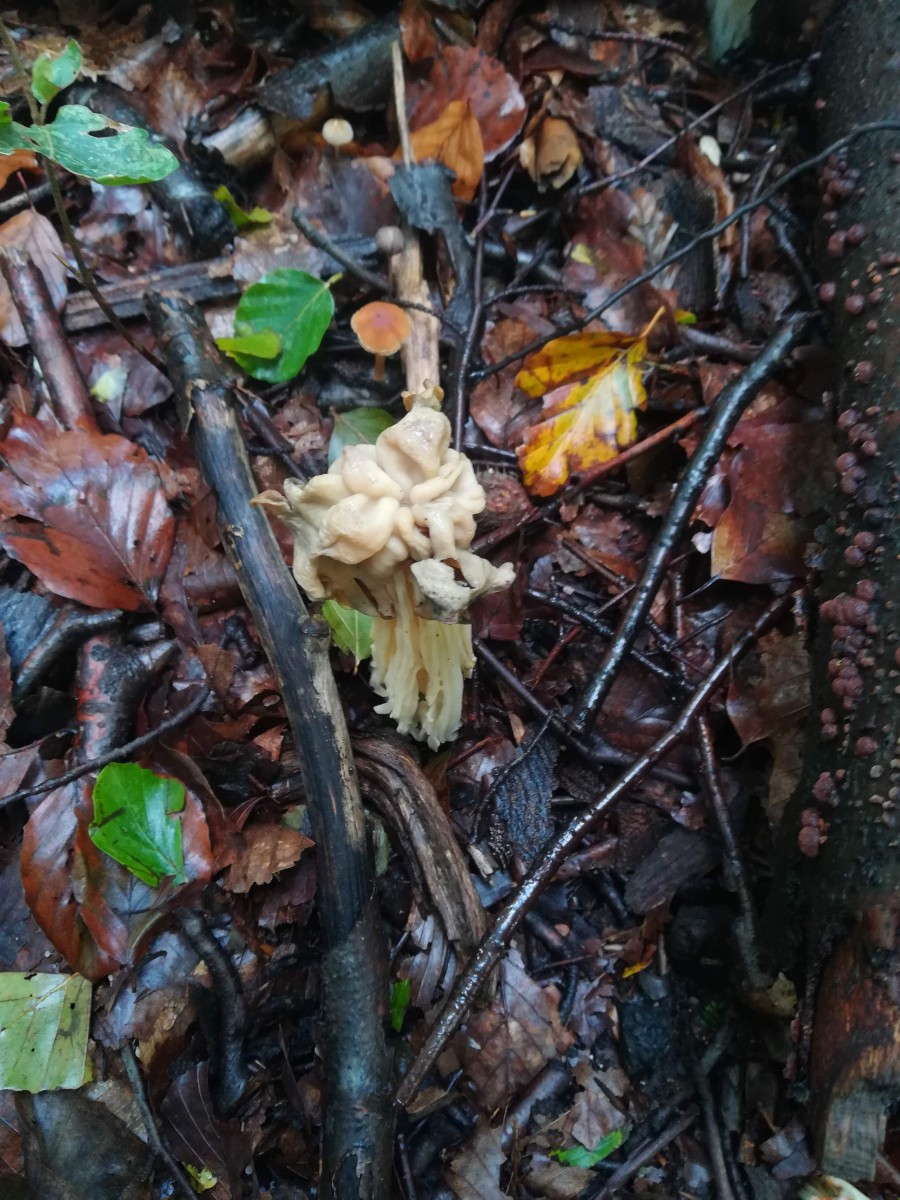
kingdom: Fungi
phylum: Ascomycota
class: Pezizomycetes
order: Pezizales
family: Helvellaceae
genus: Helvella
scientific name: Helvella crispa
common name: kruset foldhat
